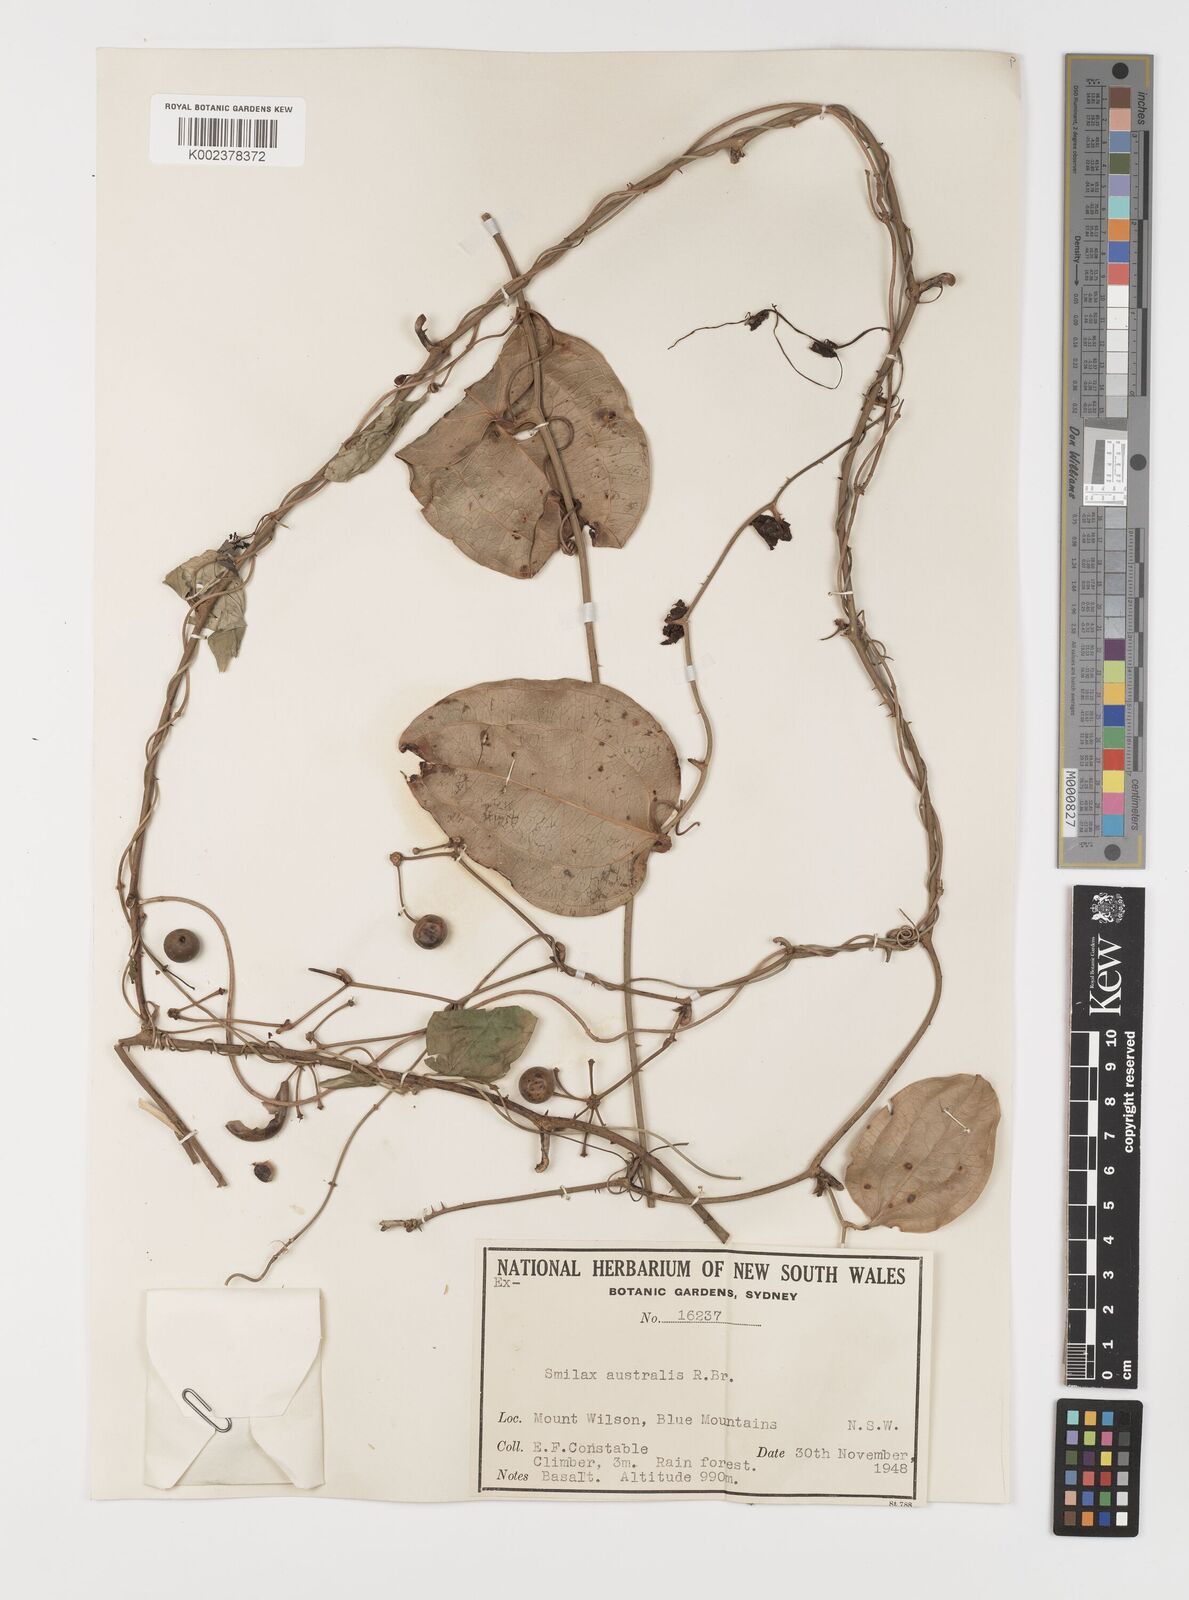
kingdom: Plantae
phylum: Tracheophyta
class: Liliopsida
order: Liliales
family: Smilacaceae
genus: Smilax
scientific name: Smilax australis
